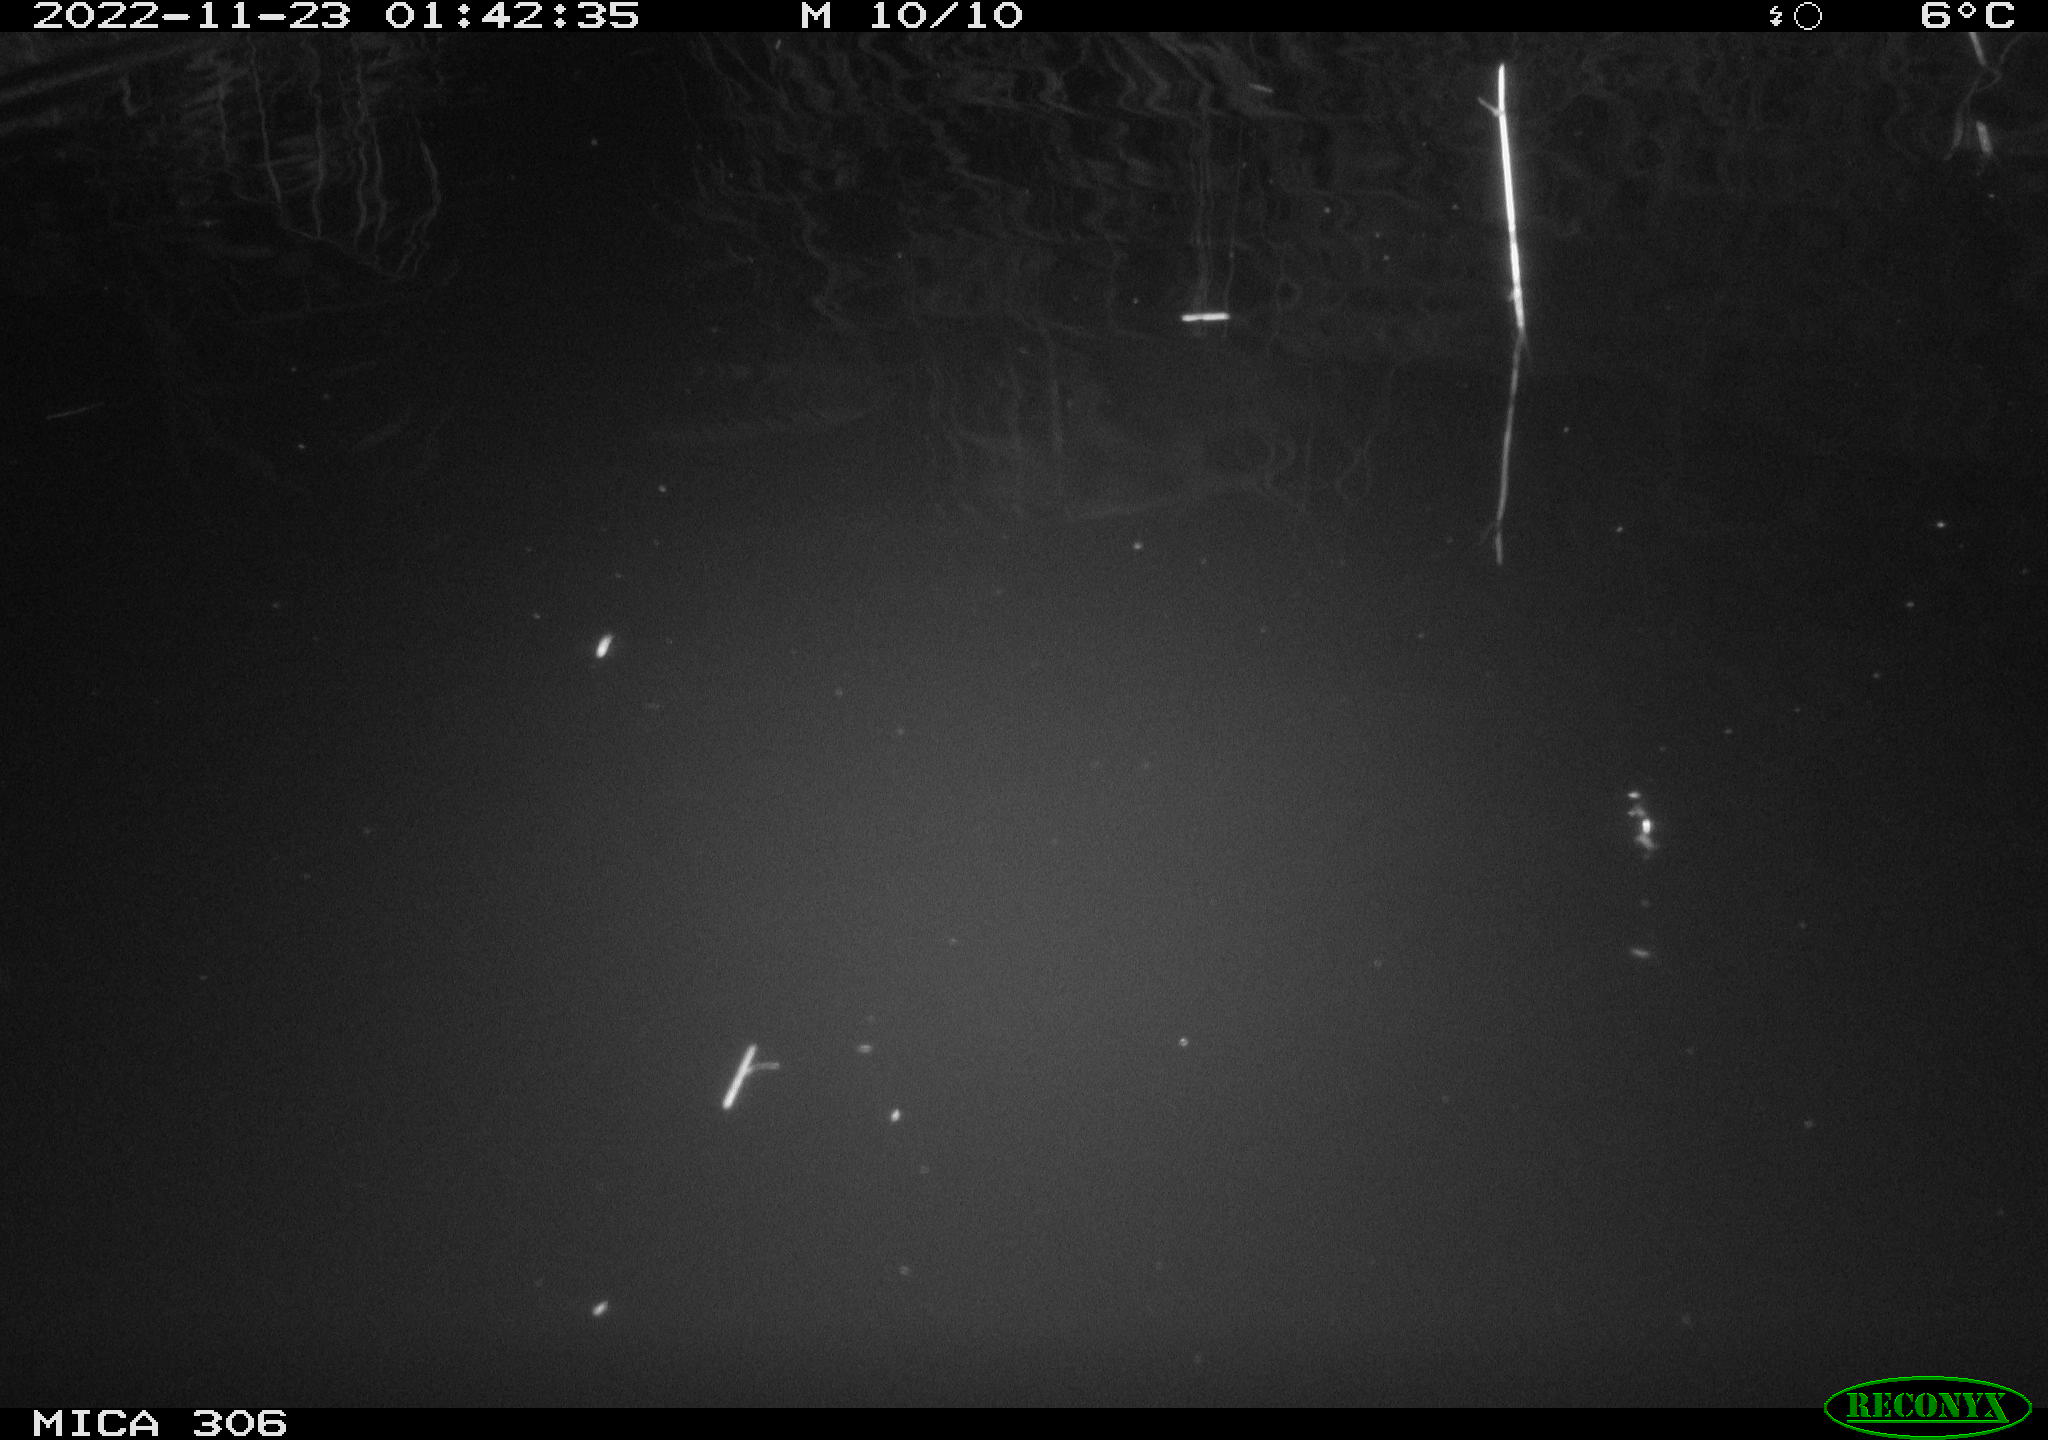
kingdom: Animalia
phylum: Chordata
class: Mammalia
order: Rodentia
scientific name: Rodentia
